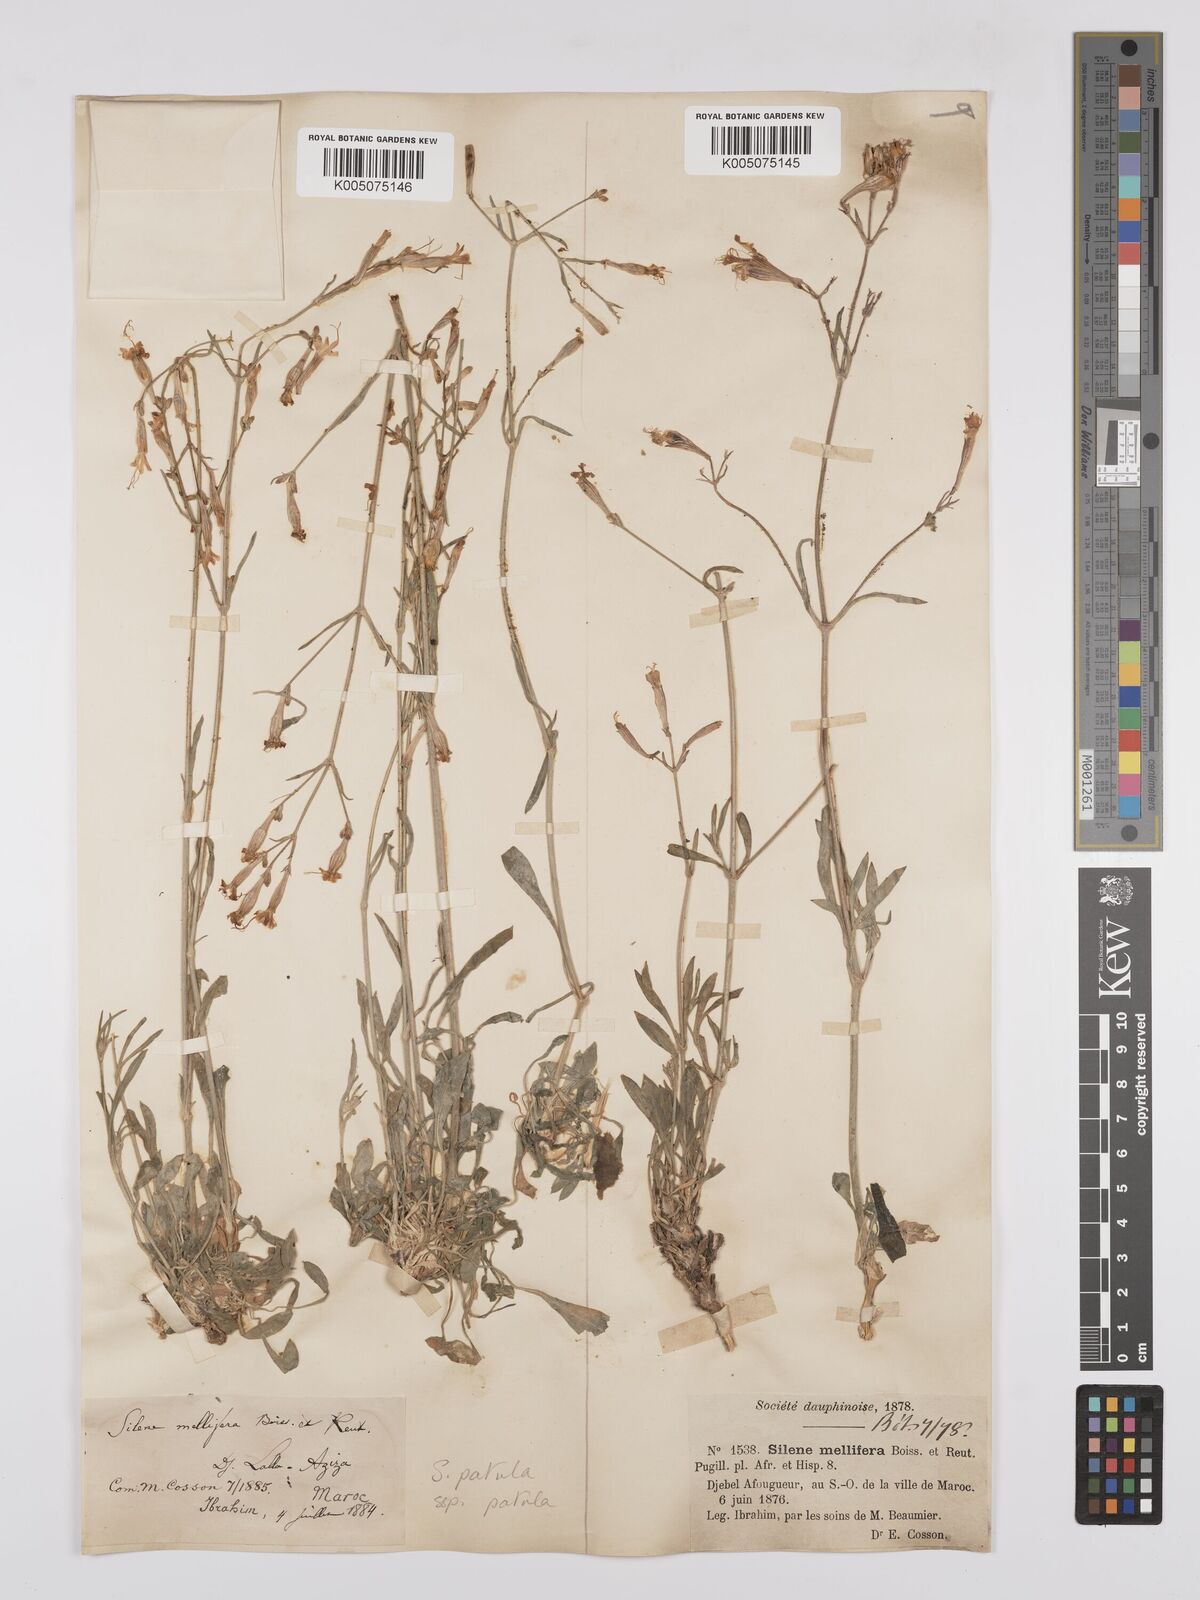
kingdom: Plantae
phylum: Tracheophyta
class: Magnoliopsida
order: Caryophyllales
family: Caryophyllaceae
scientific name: Caryophyllaceae
